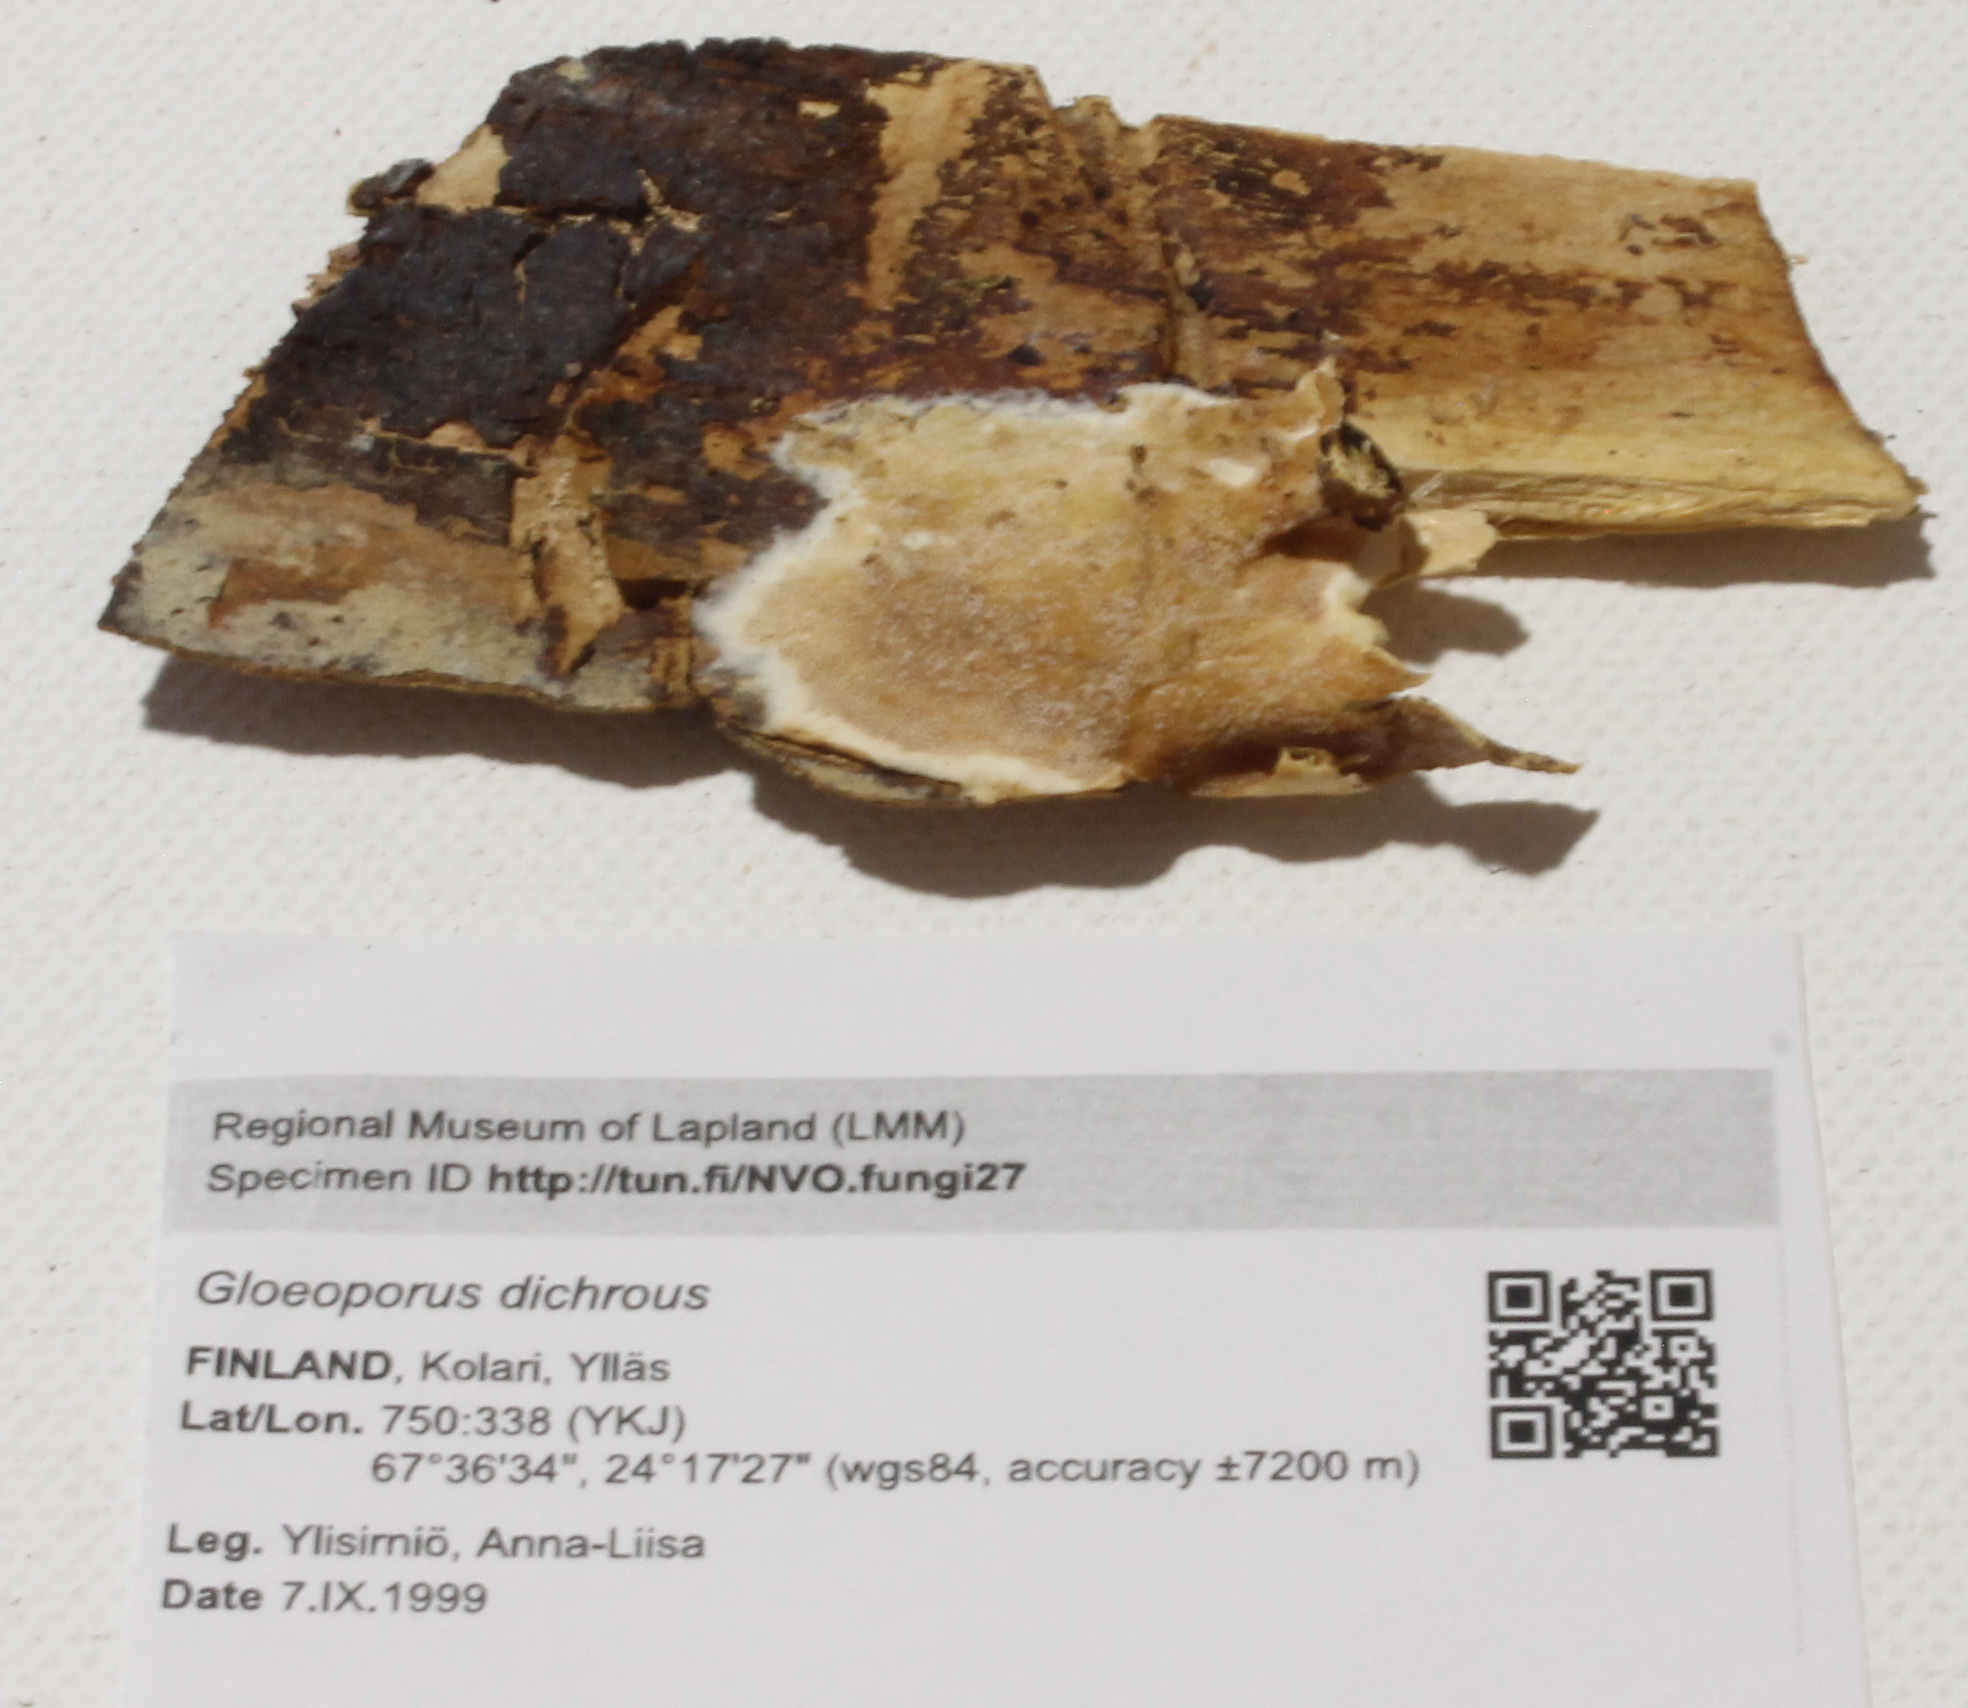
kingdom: Fungi
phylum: Basidiomycota
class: Agaricomycetes
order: Polyporales
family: Irpicaceae
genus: Vitreoporus
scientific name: Vitreoporus dichrous
